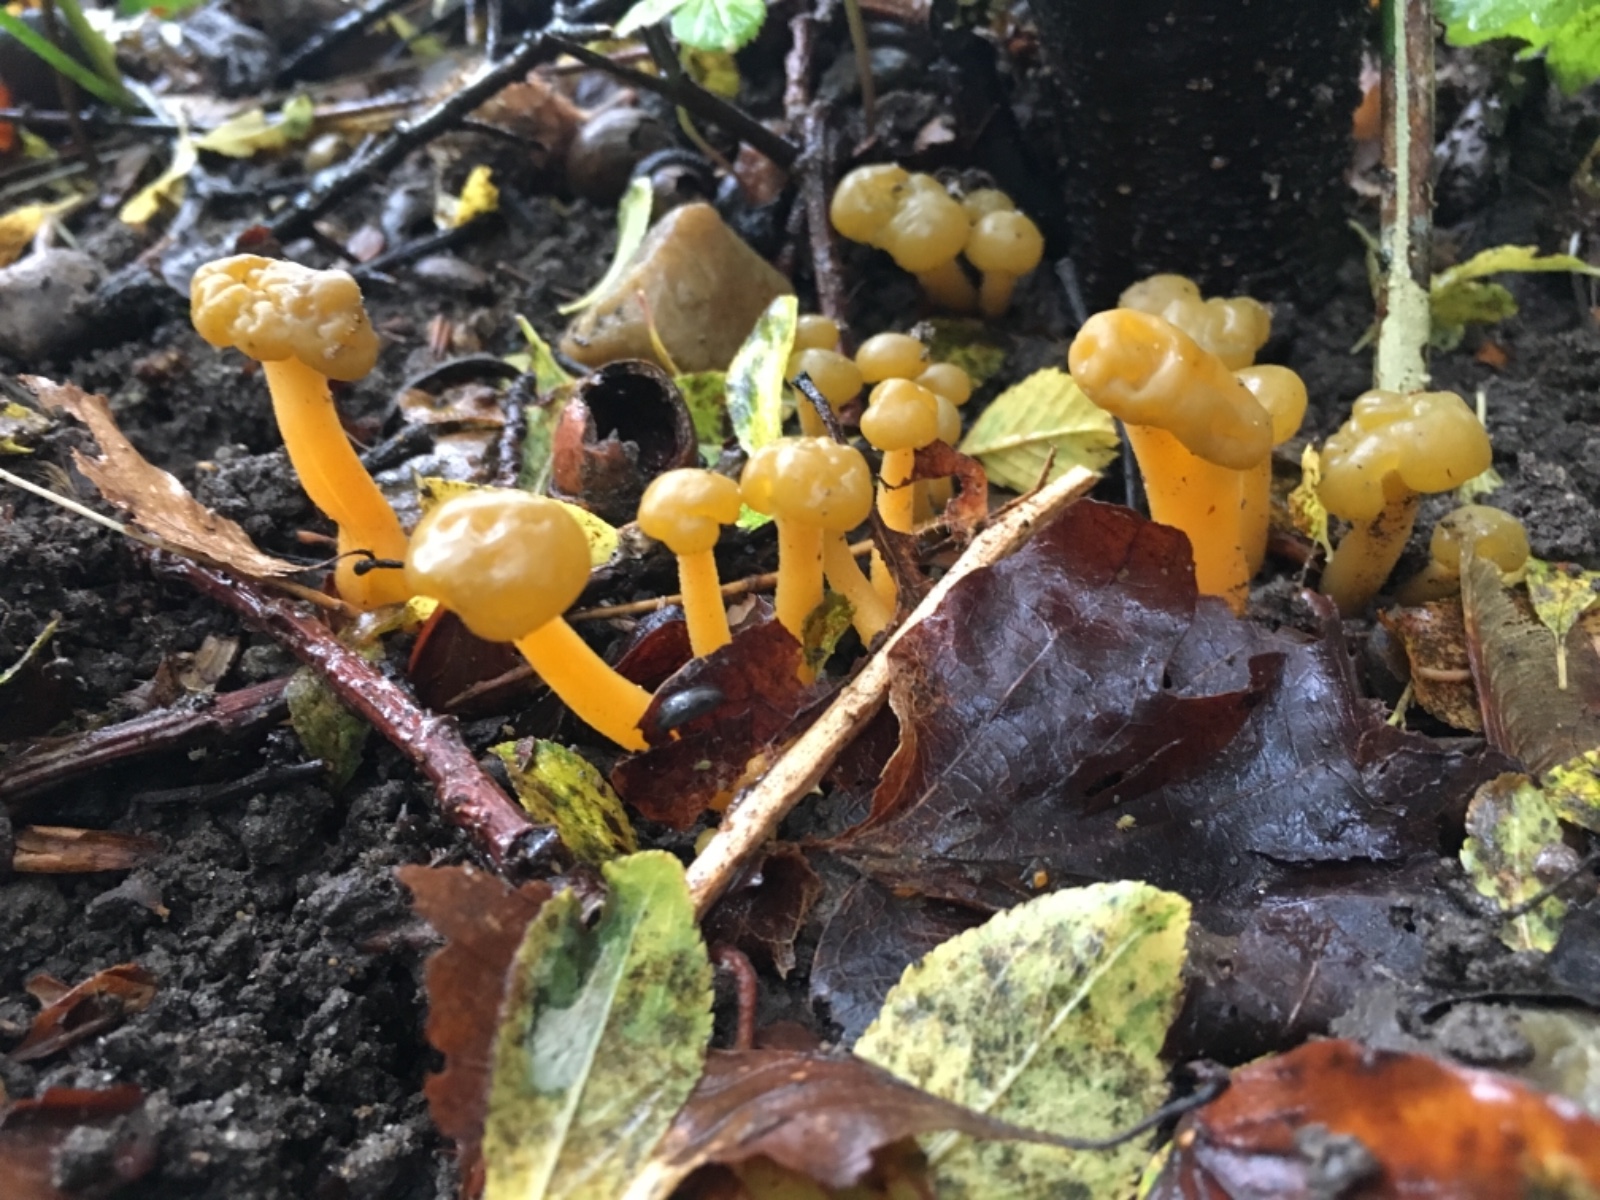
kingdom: Fungi
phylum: Ascomycota
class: Leotiomycetes
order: Leotiales
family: Leotiaceae
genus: Leotia
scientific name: Leotia lubrica
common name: ravsvamp
